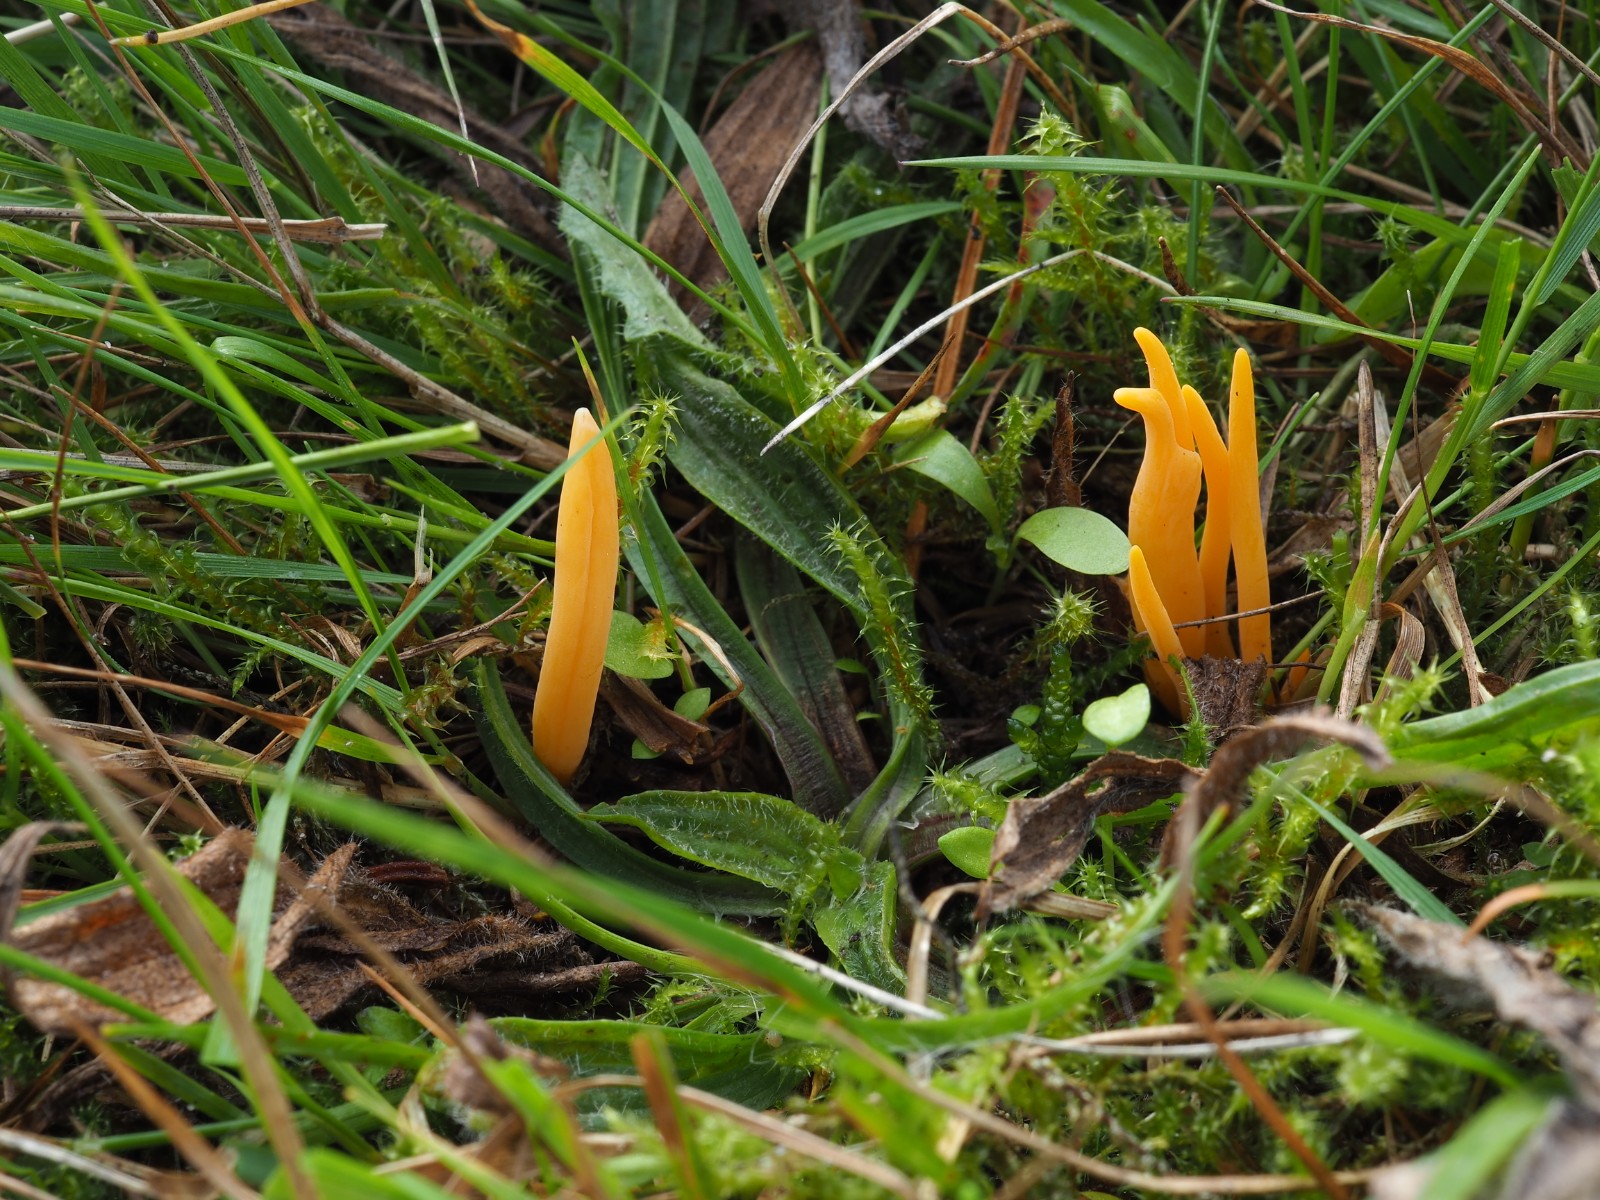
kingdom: Fungi
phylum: Basidiomycota
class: Agaricomycetes
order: Agaricales
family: Clavariaceae
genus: Clavulinopsis
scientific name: Clavulinopsis luteoalba
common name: abrikos-køllesvamp
